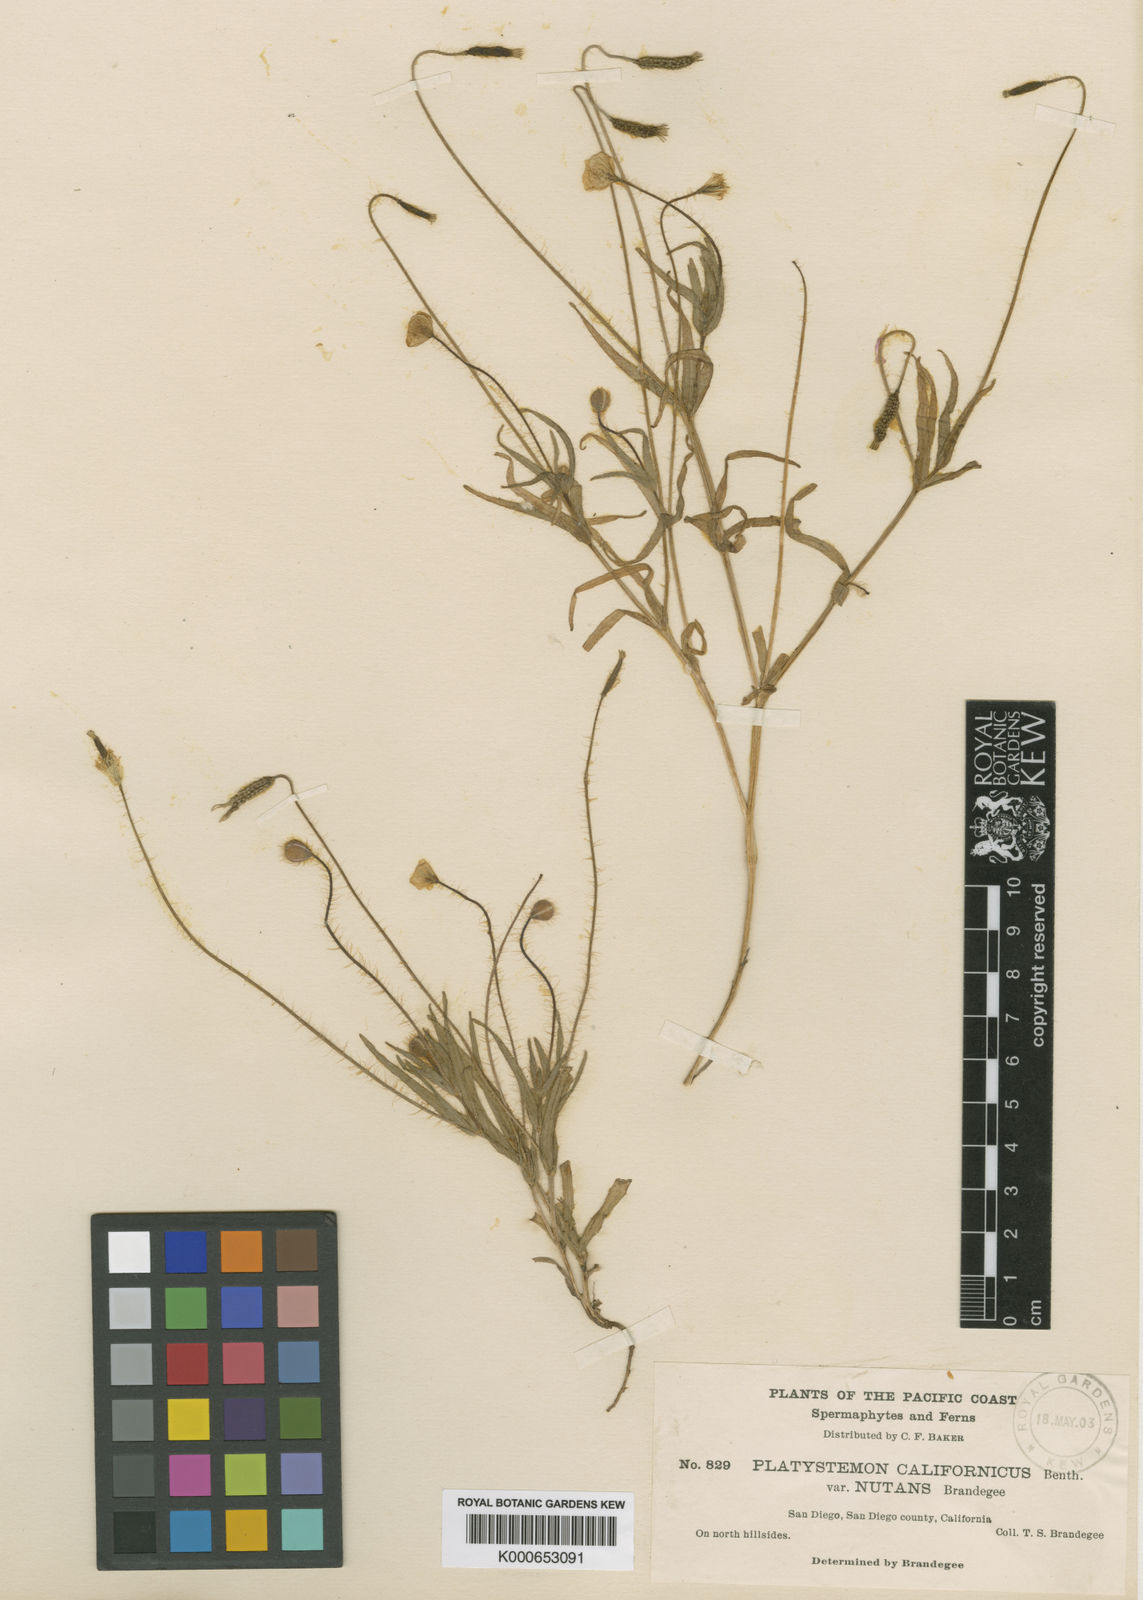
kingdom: Plantae
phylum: Tracheophyta
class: Magnoliopsida
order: Ranunculales
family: Papaveraceae
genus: Platystemon
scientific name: Platystemon californicus
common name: Cream-cups
